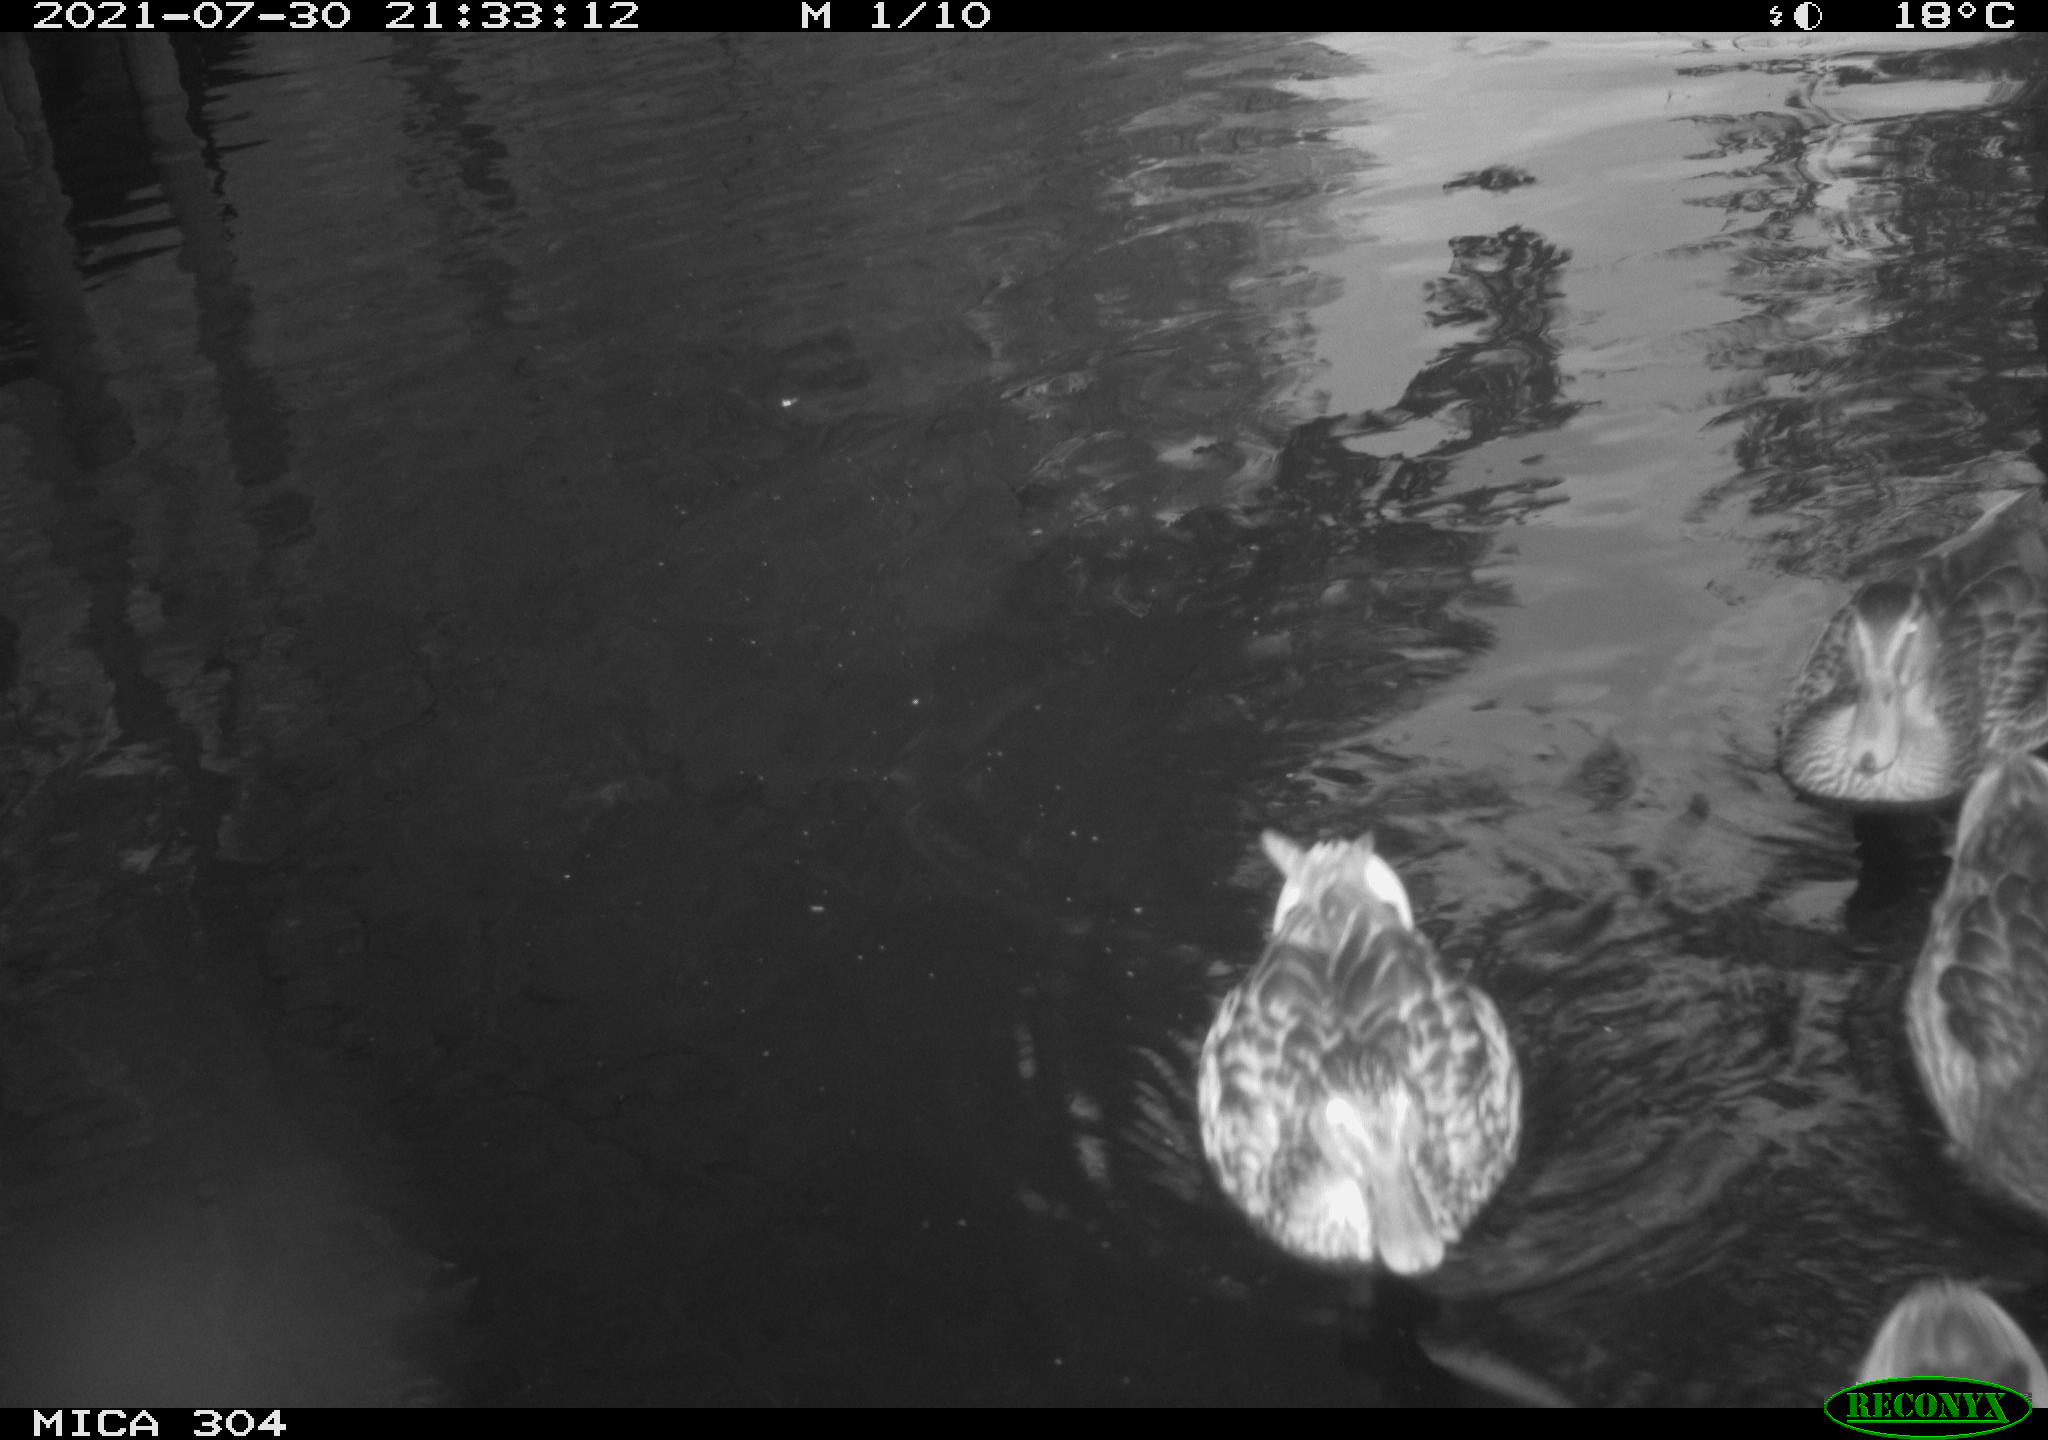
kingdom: Animalia
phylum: Chordata
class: Aves
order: Anseriformes
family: Anatidae
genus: Anas
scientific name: Anas platyrhynchos
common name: Mallard
